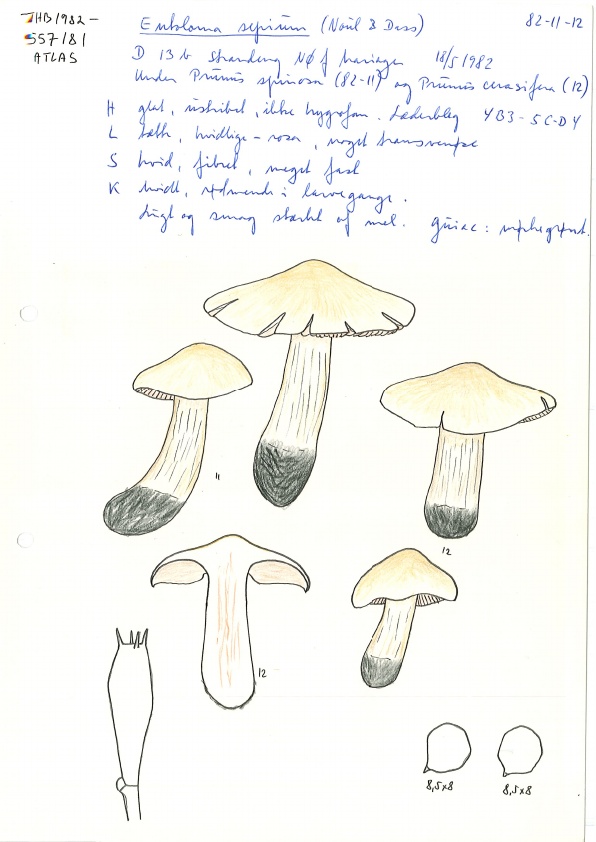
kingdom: Fungi
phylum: Basidiomycota
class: Agaricomycetes
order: Agaricales
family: Entolomataceae
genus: Entoloma
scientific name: Entoloma sepium
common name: slåen-rødblad
